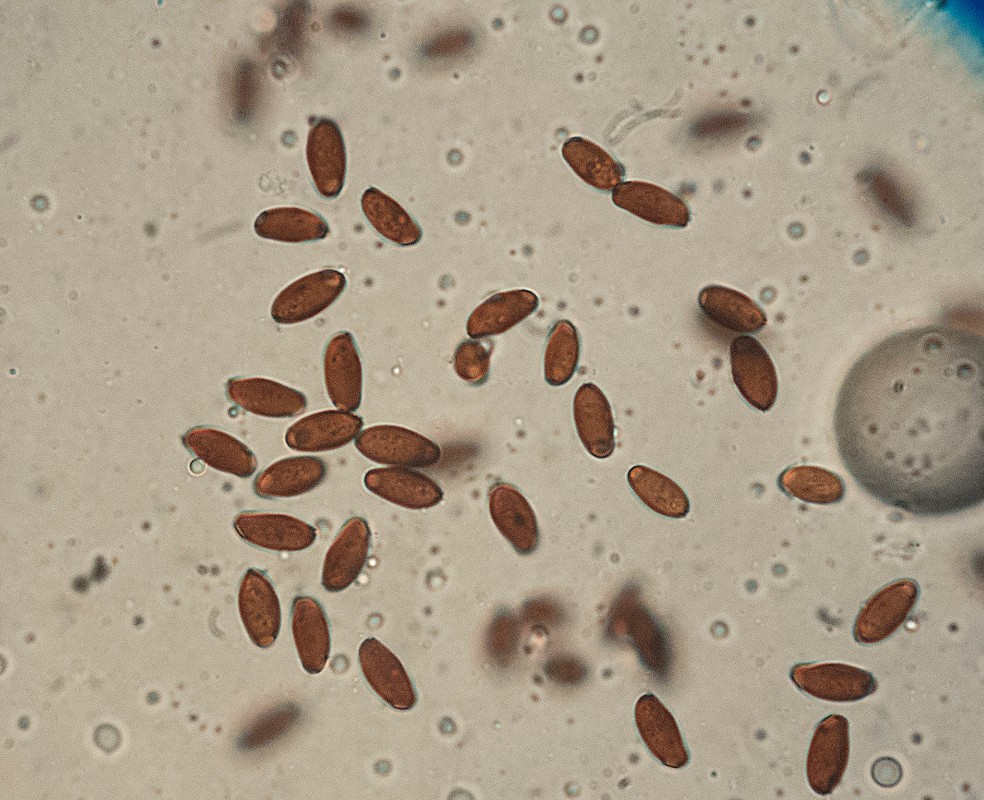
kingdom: Fungi
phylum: Basidiomycota
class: Agaricomycetes
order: Agaricales
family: Psathyrellaceae
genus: Coprinellus
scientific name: Coprinellus pusillulus
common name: lillebitte blækhat
